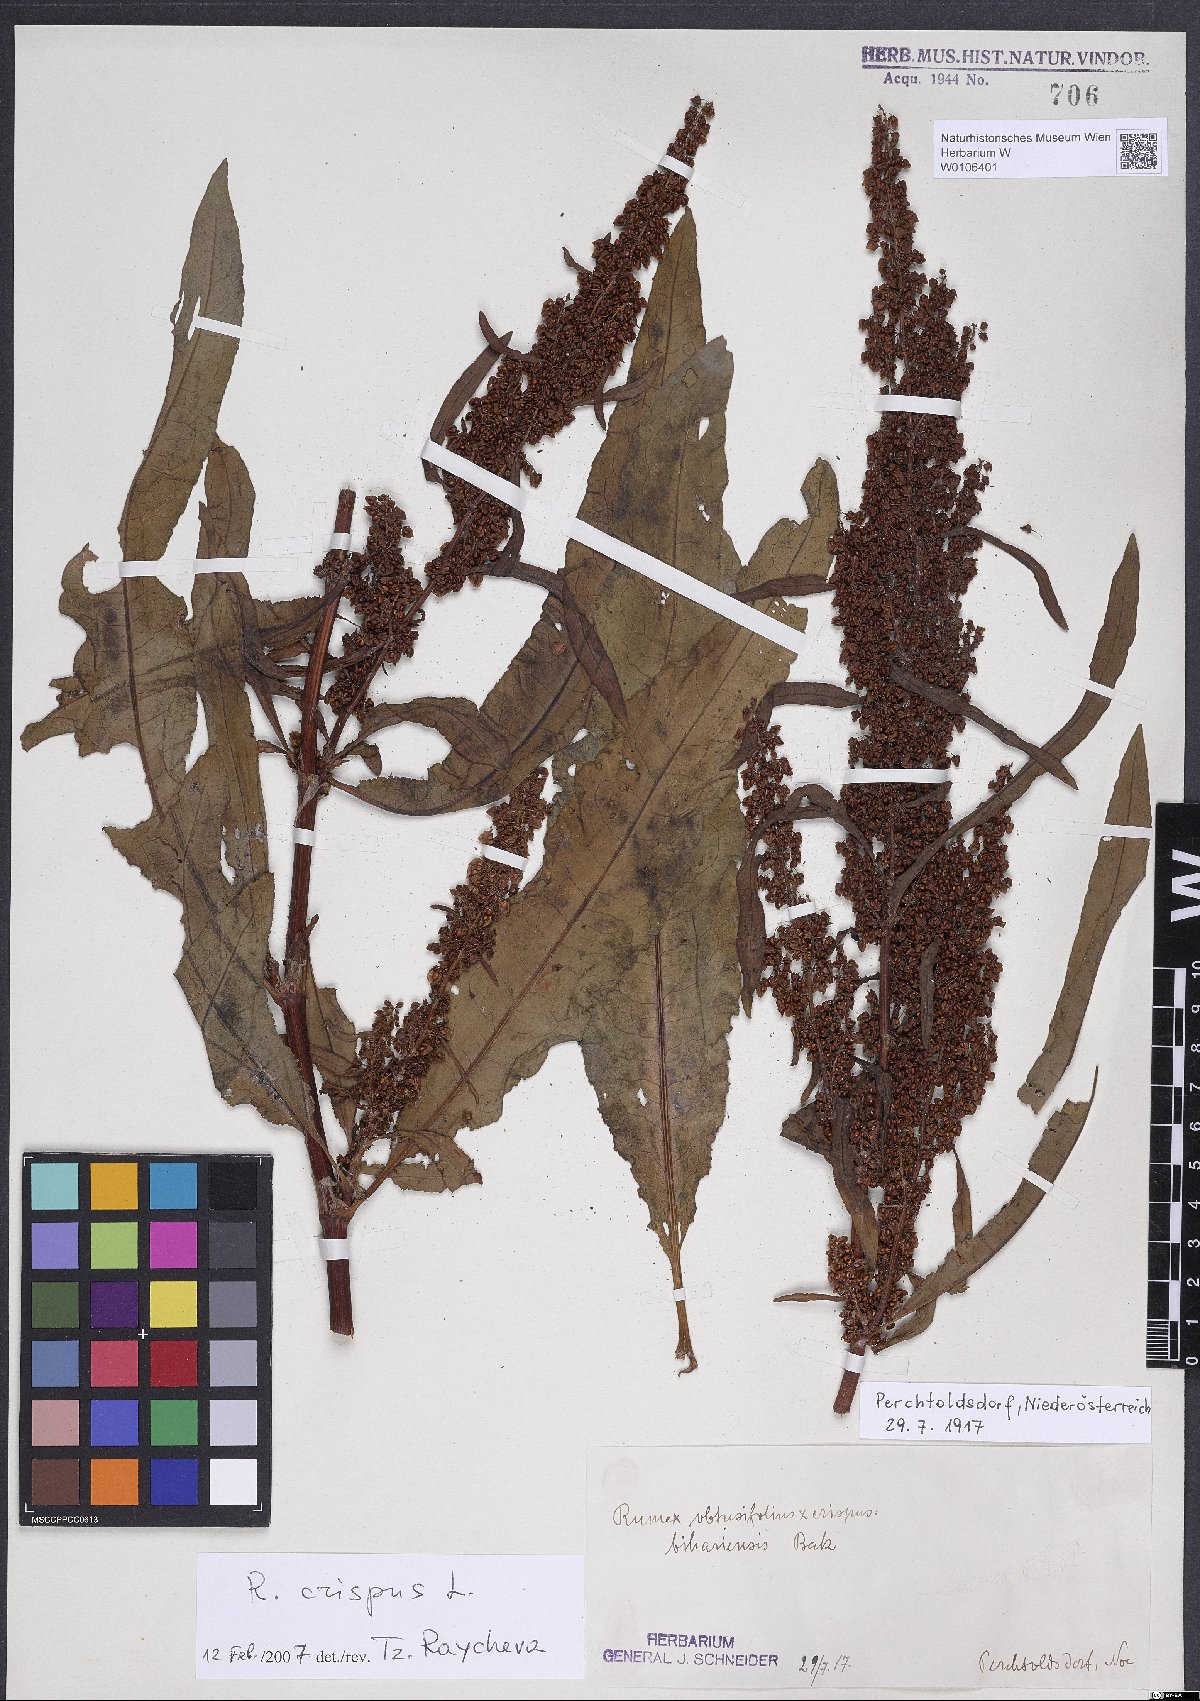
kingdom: Plantae
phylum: Tracheophyta
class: Magnoliopsida
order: Caryophyllales
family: Polygonaceae
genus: Rumex
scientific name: Rumex crispus
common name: Curled dock
